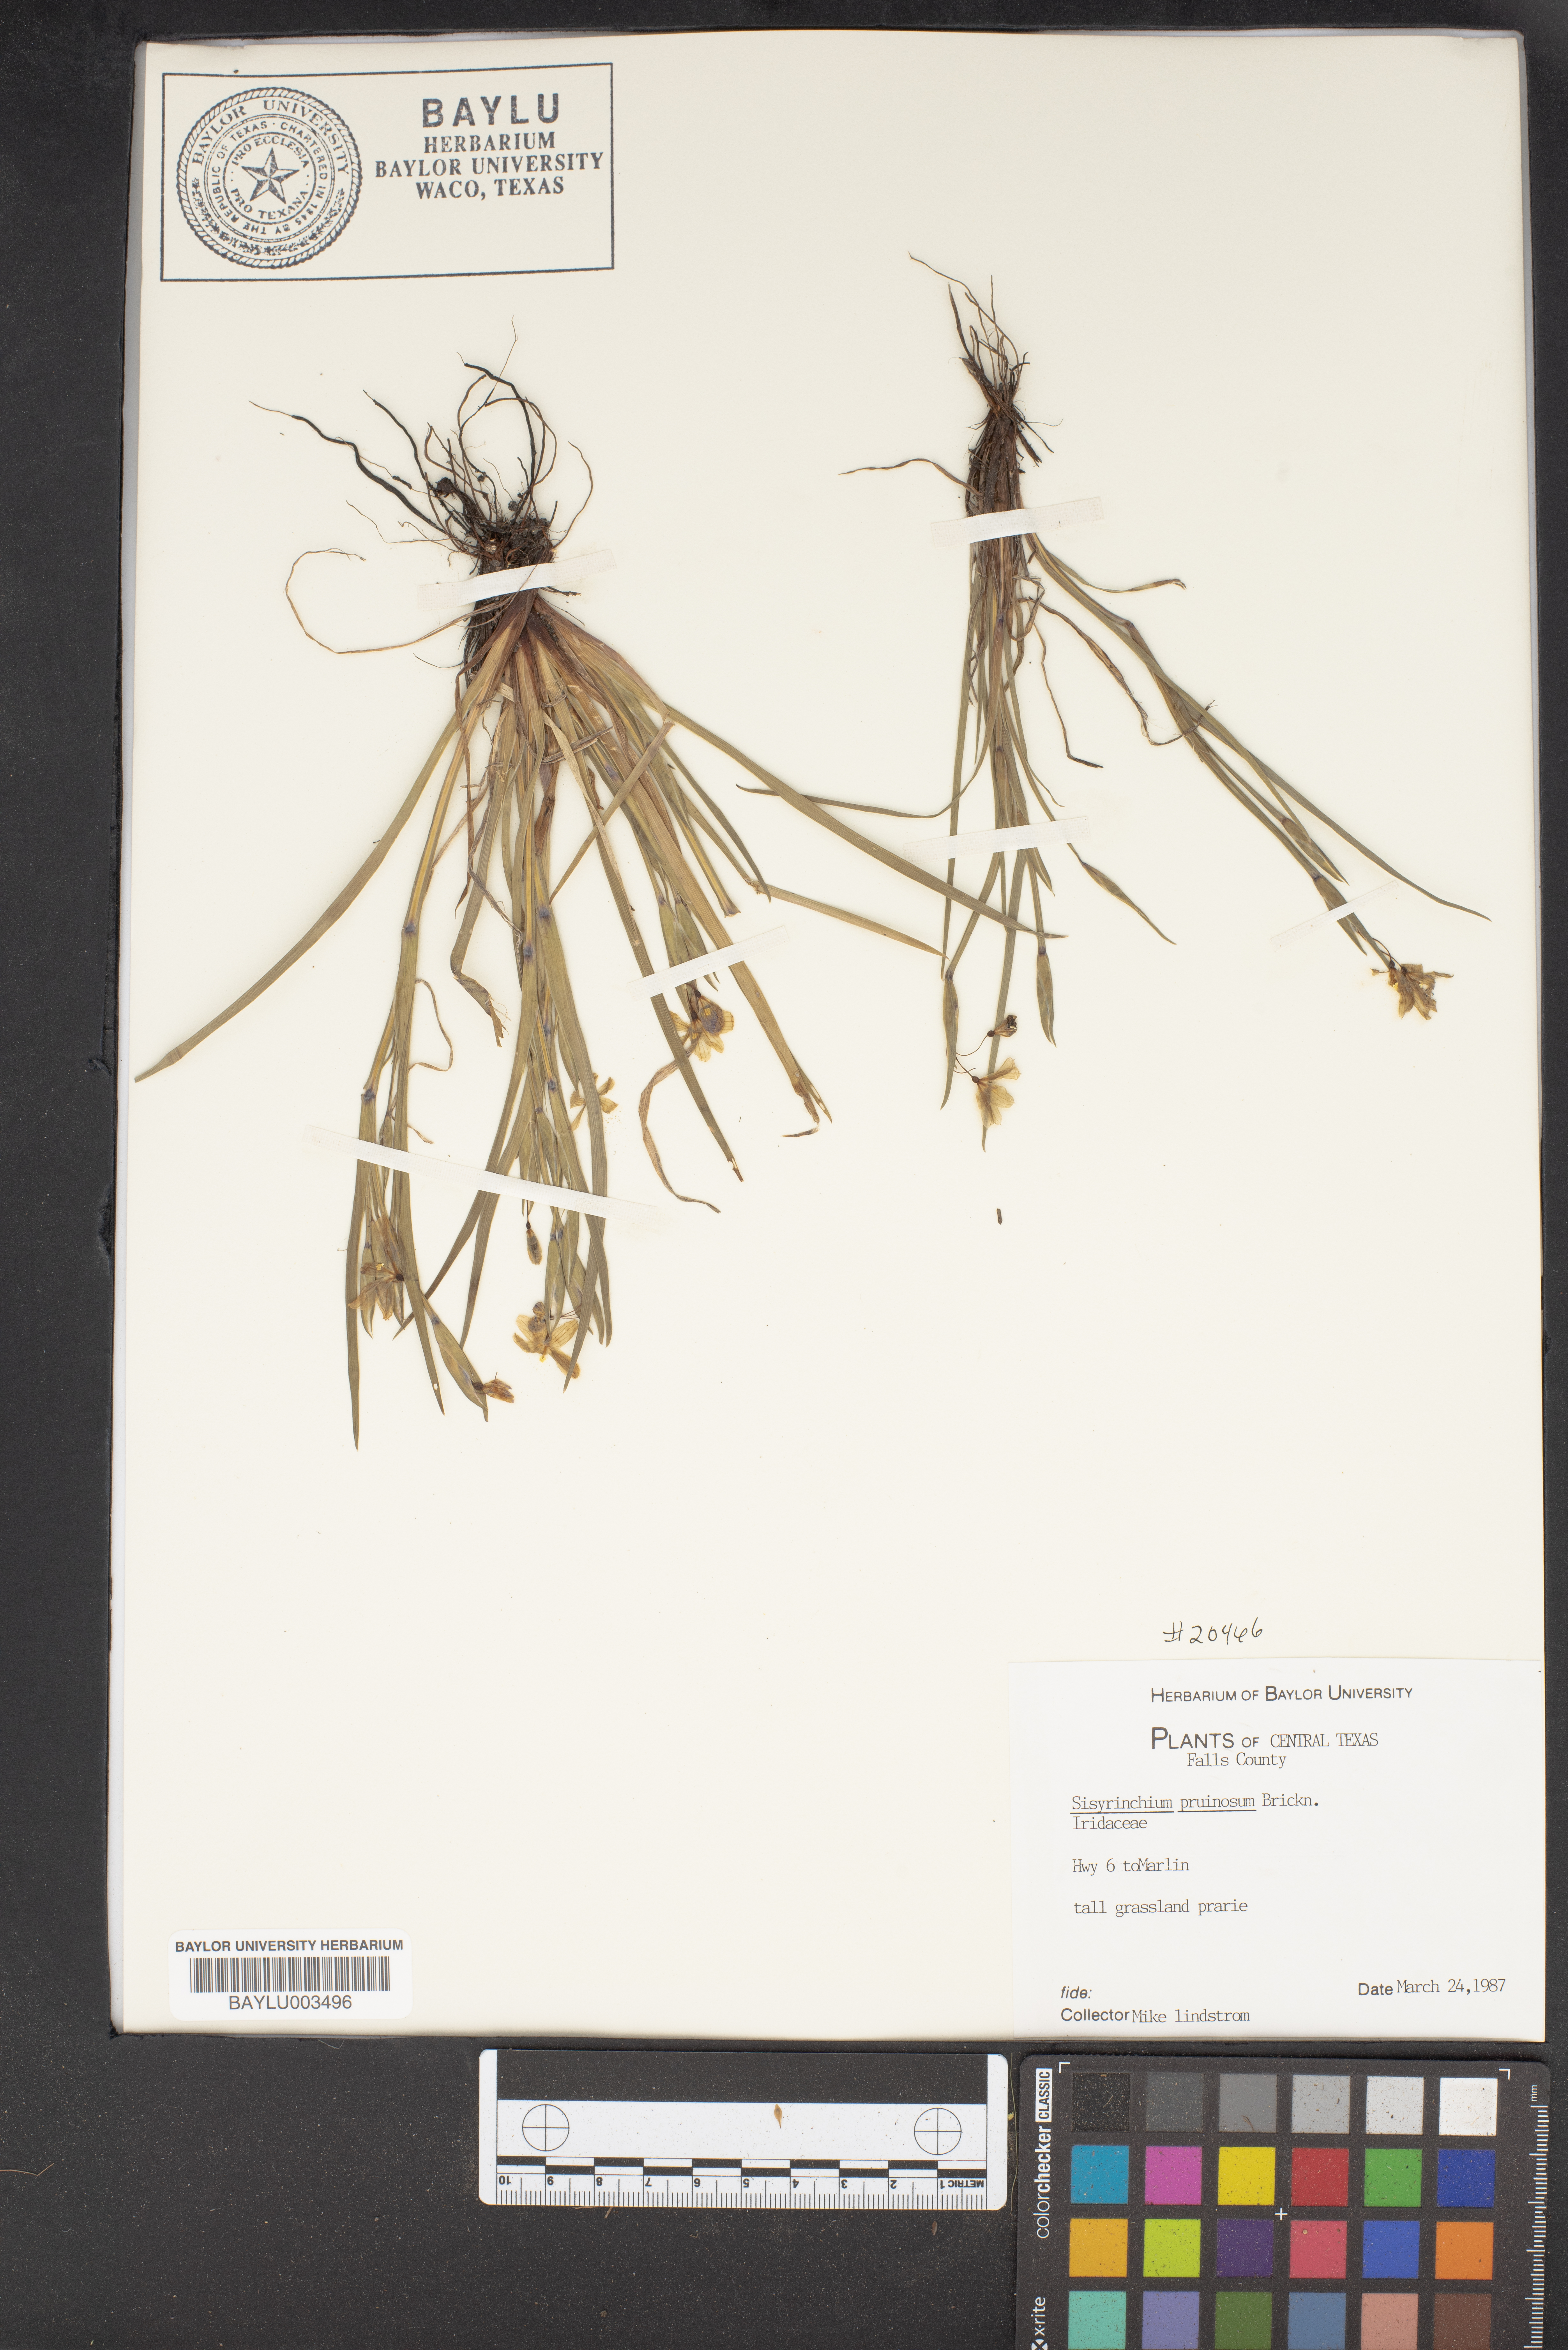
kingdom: Plantae
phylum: Tracheophyta
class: Liliopsida
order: Asparagales
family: Iridaceae
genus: Sisyrinchium
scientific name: Sisyrinchium pruinosum
